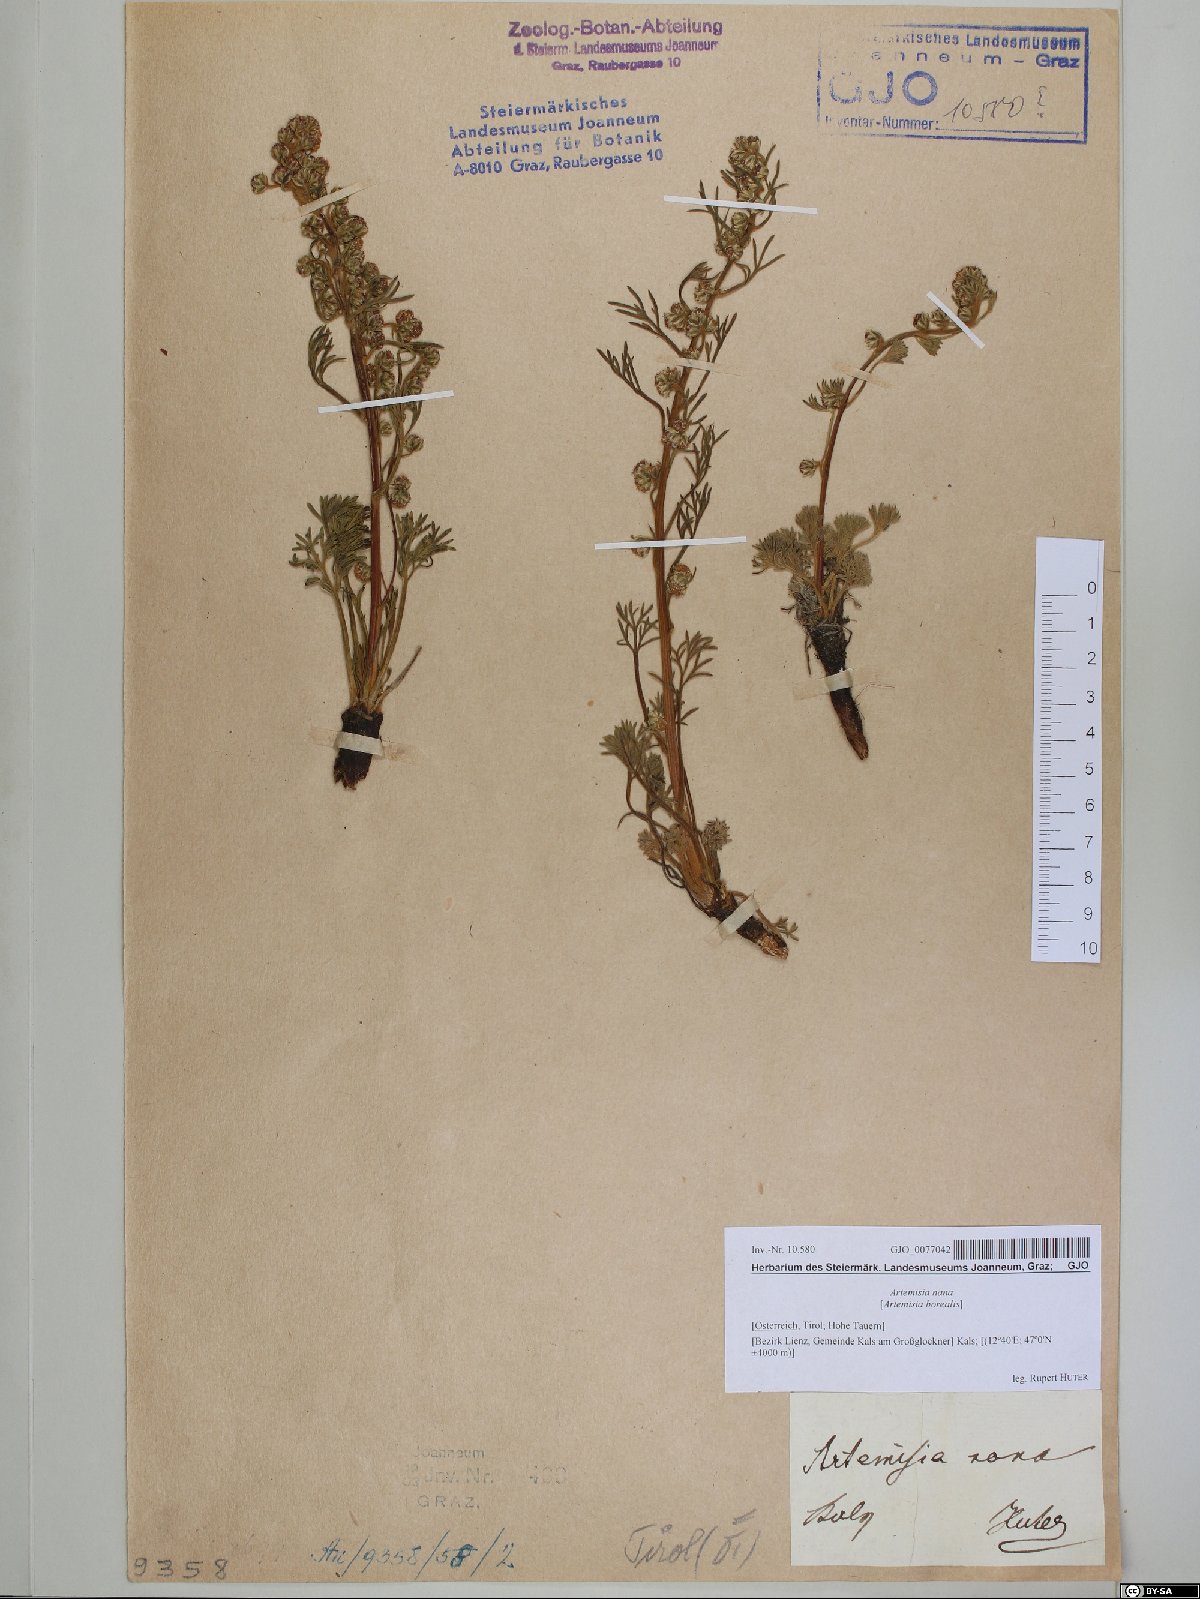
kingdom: Plantae
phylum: Tracheophyta
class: Magnoliopsida
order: Asterales
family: Asteraceae
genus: Artemisia
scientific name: Artemisia borealis
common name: Boreal sage
